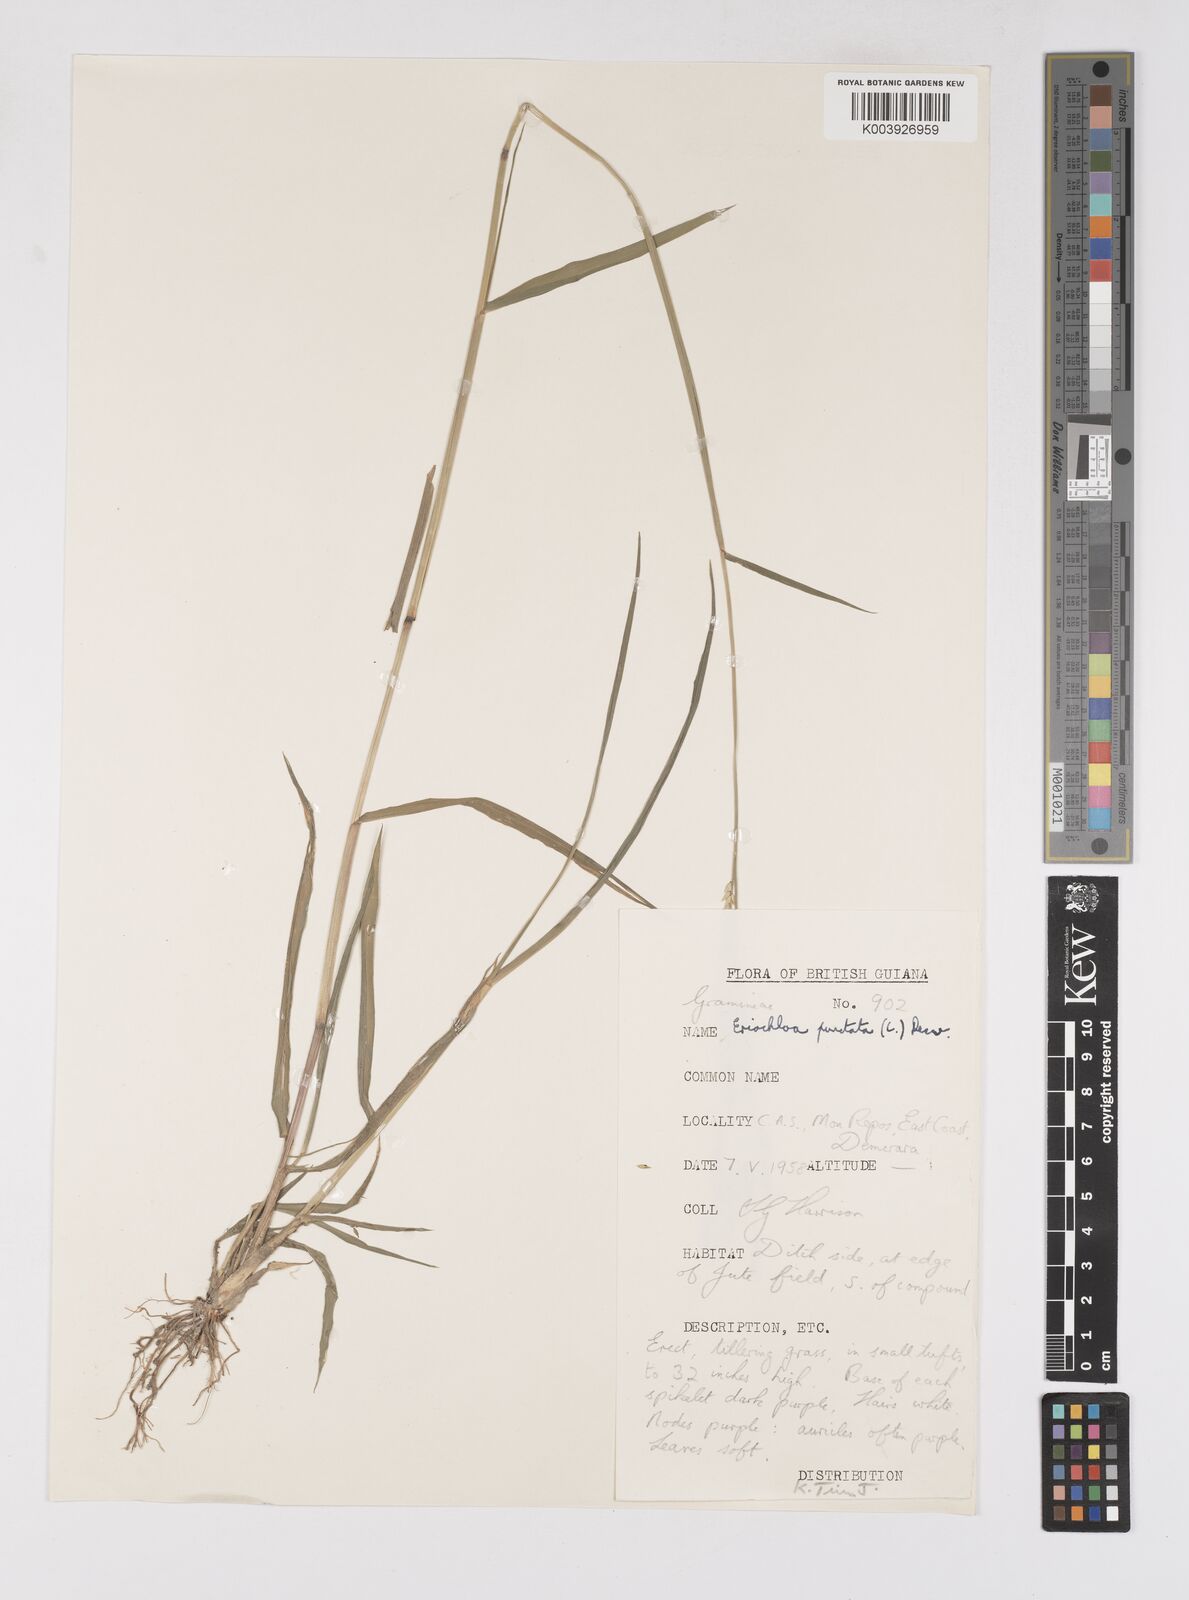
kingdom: Plantae
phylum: Tracheophyta
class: Liliopsida
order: Poales
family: Poaceae
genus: Eriochloa
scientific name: Eriochloa punctata
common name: Louisiana cupgrass
